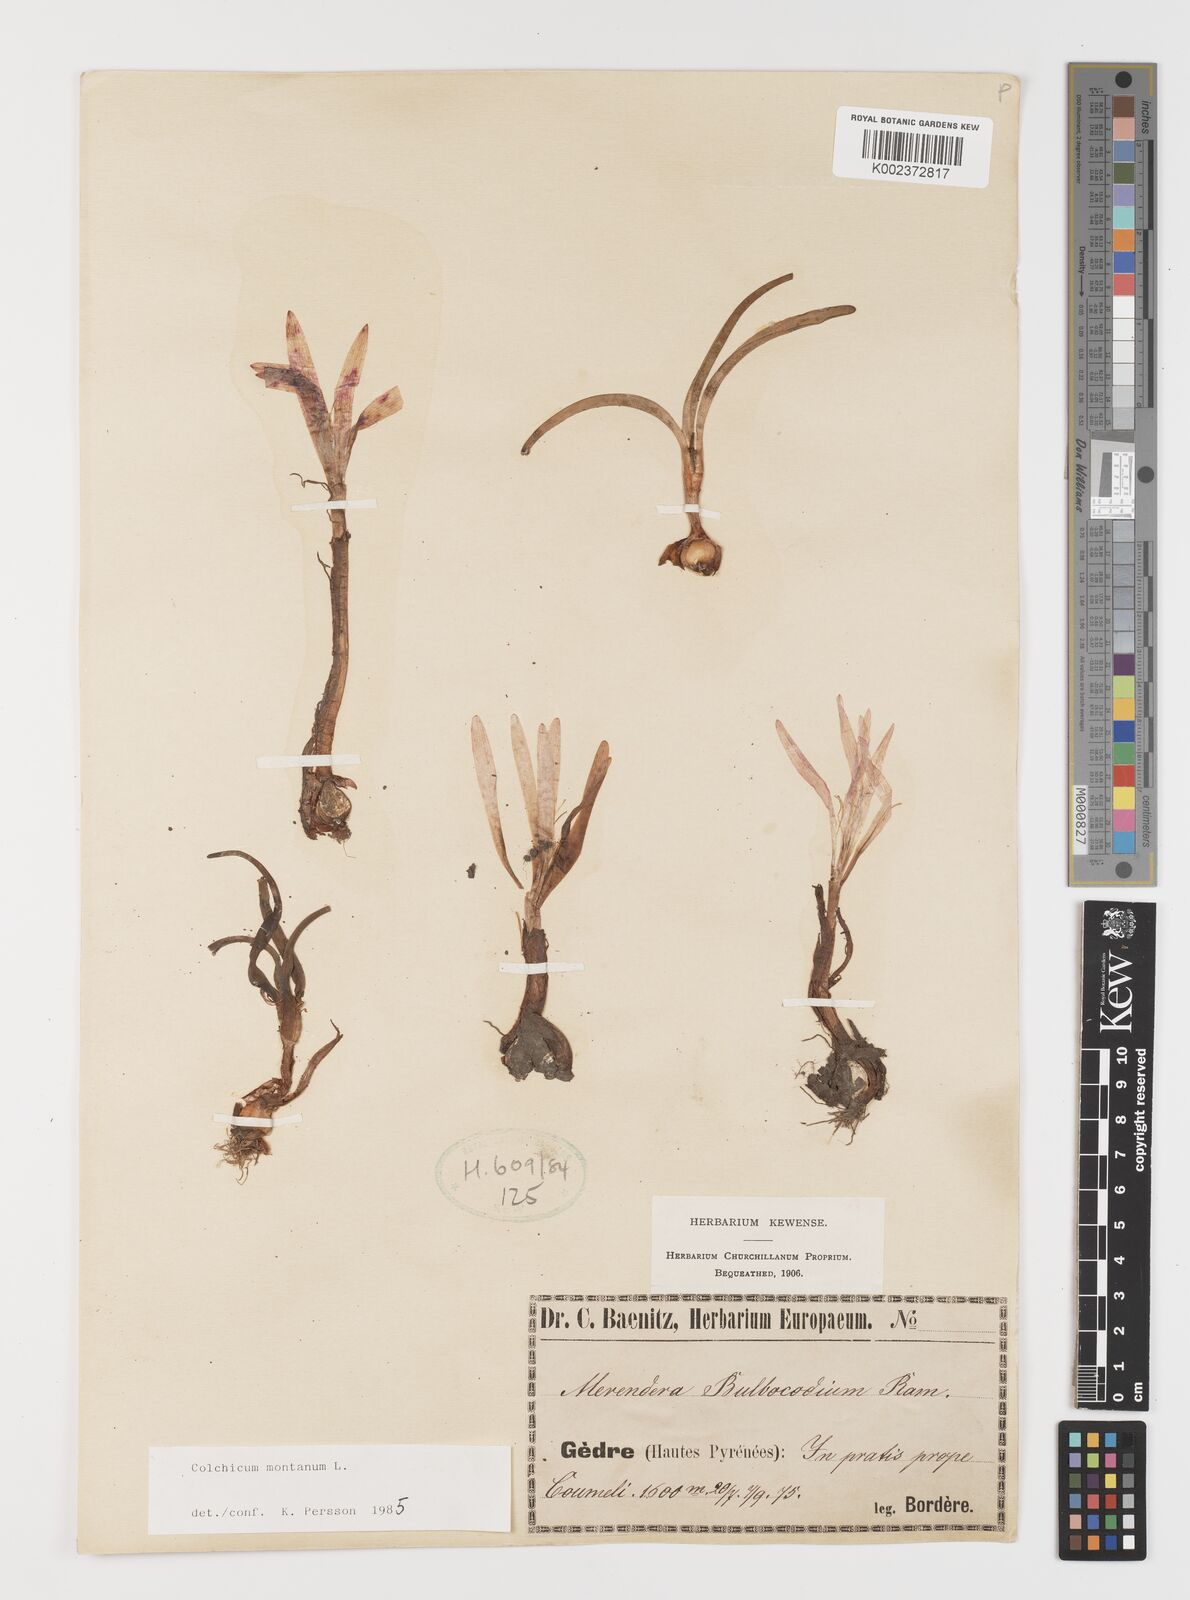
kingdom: Plantae
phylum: Tracheophyta
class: Liliopsida
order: Liliales
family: Colchicaceae
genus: Colchicum
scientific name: Colchicum montanum
